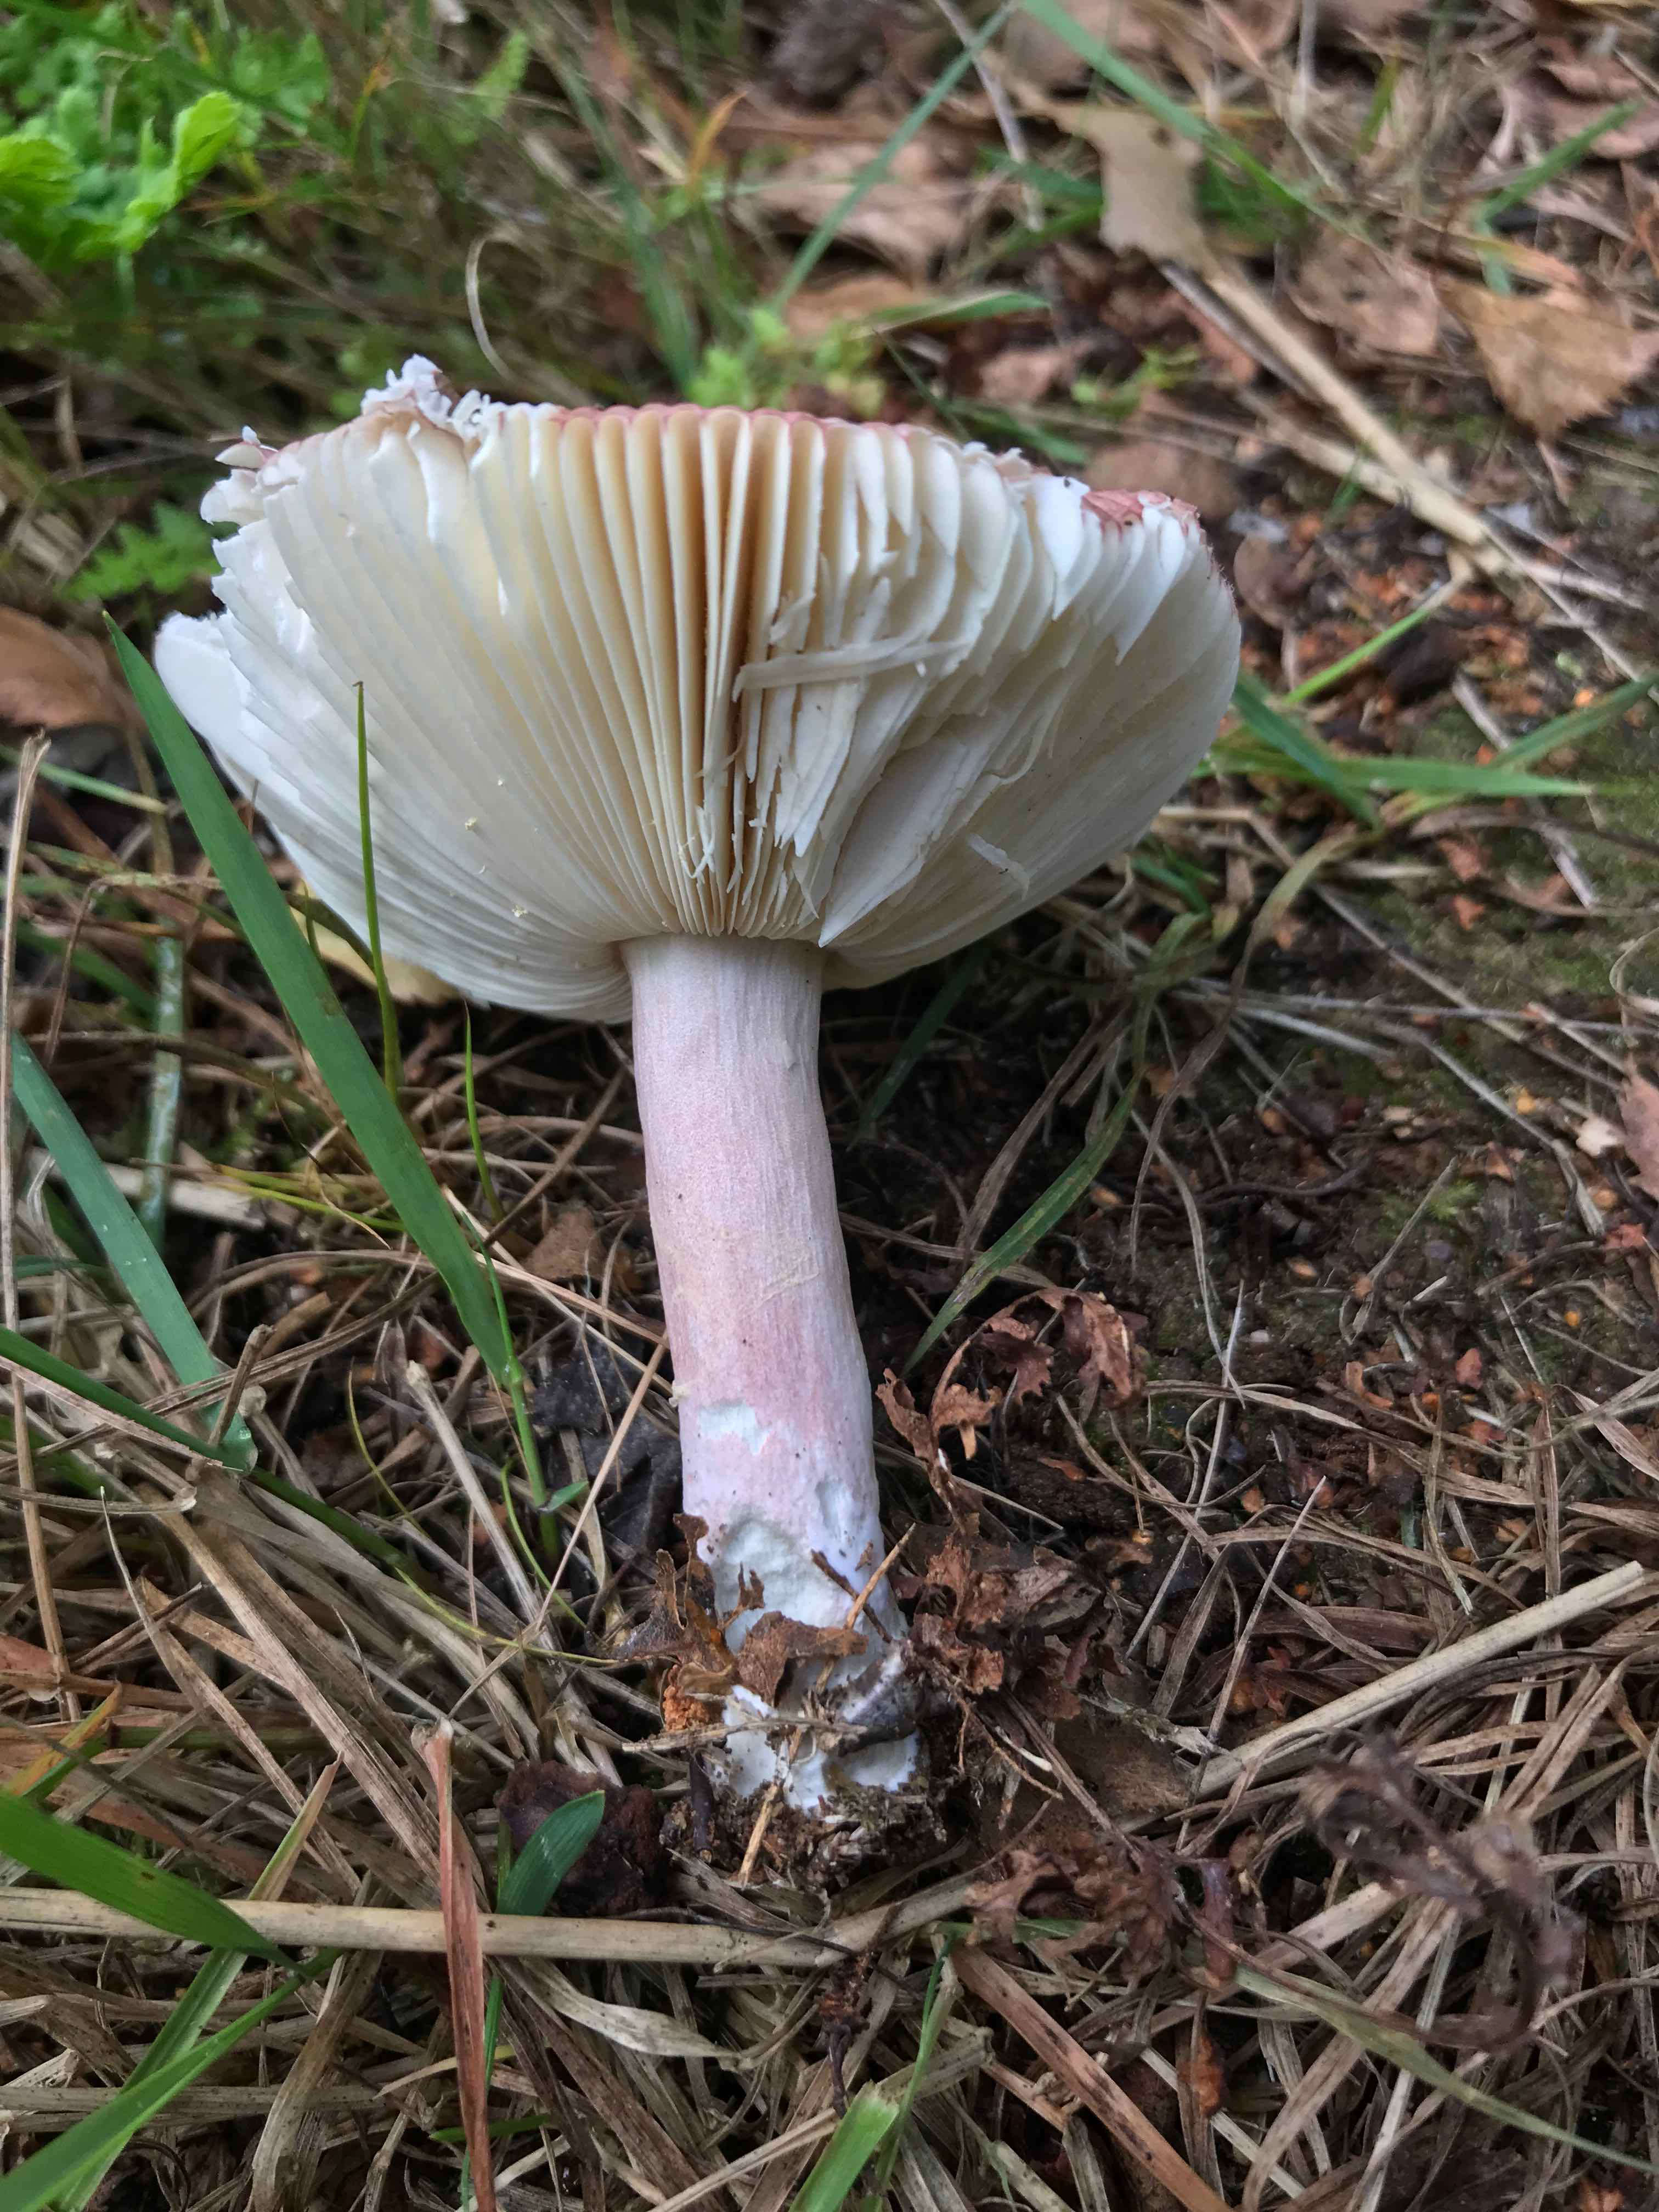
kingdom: Fungi
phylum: Basidiomycota
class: Agaricomycetes
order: Russulales
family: Russulaceae
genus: Russula
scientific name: Russula nitida
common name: året skørhat
